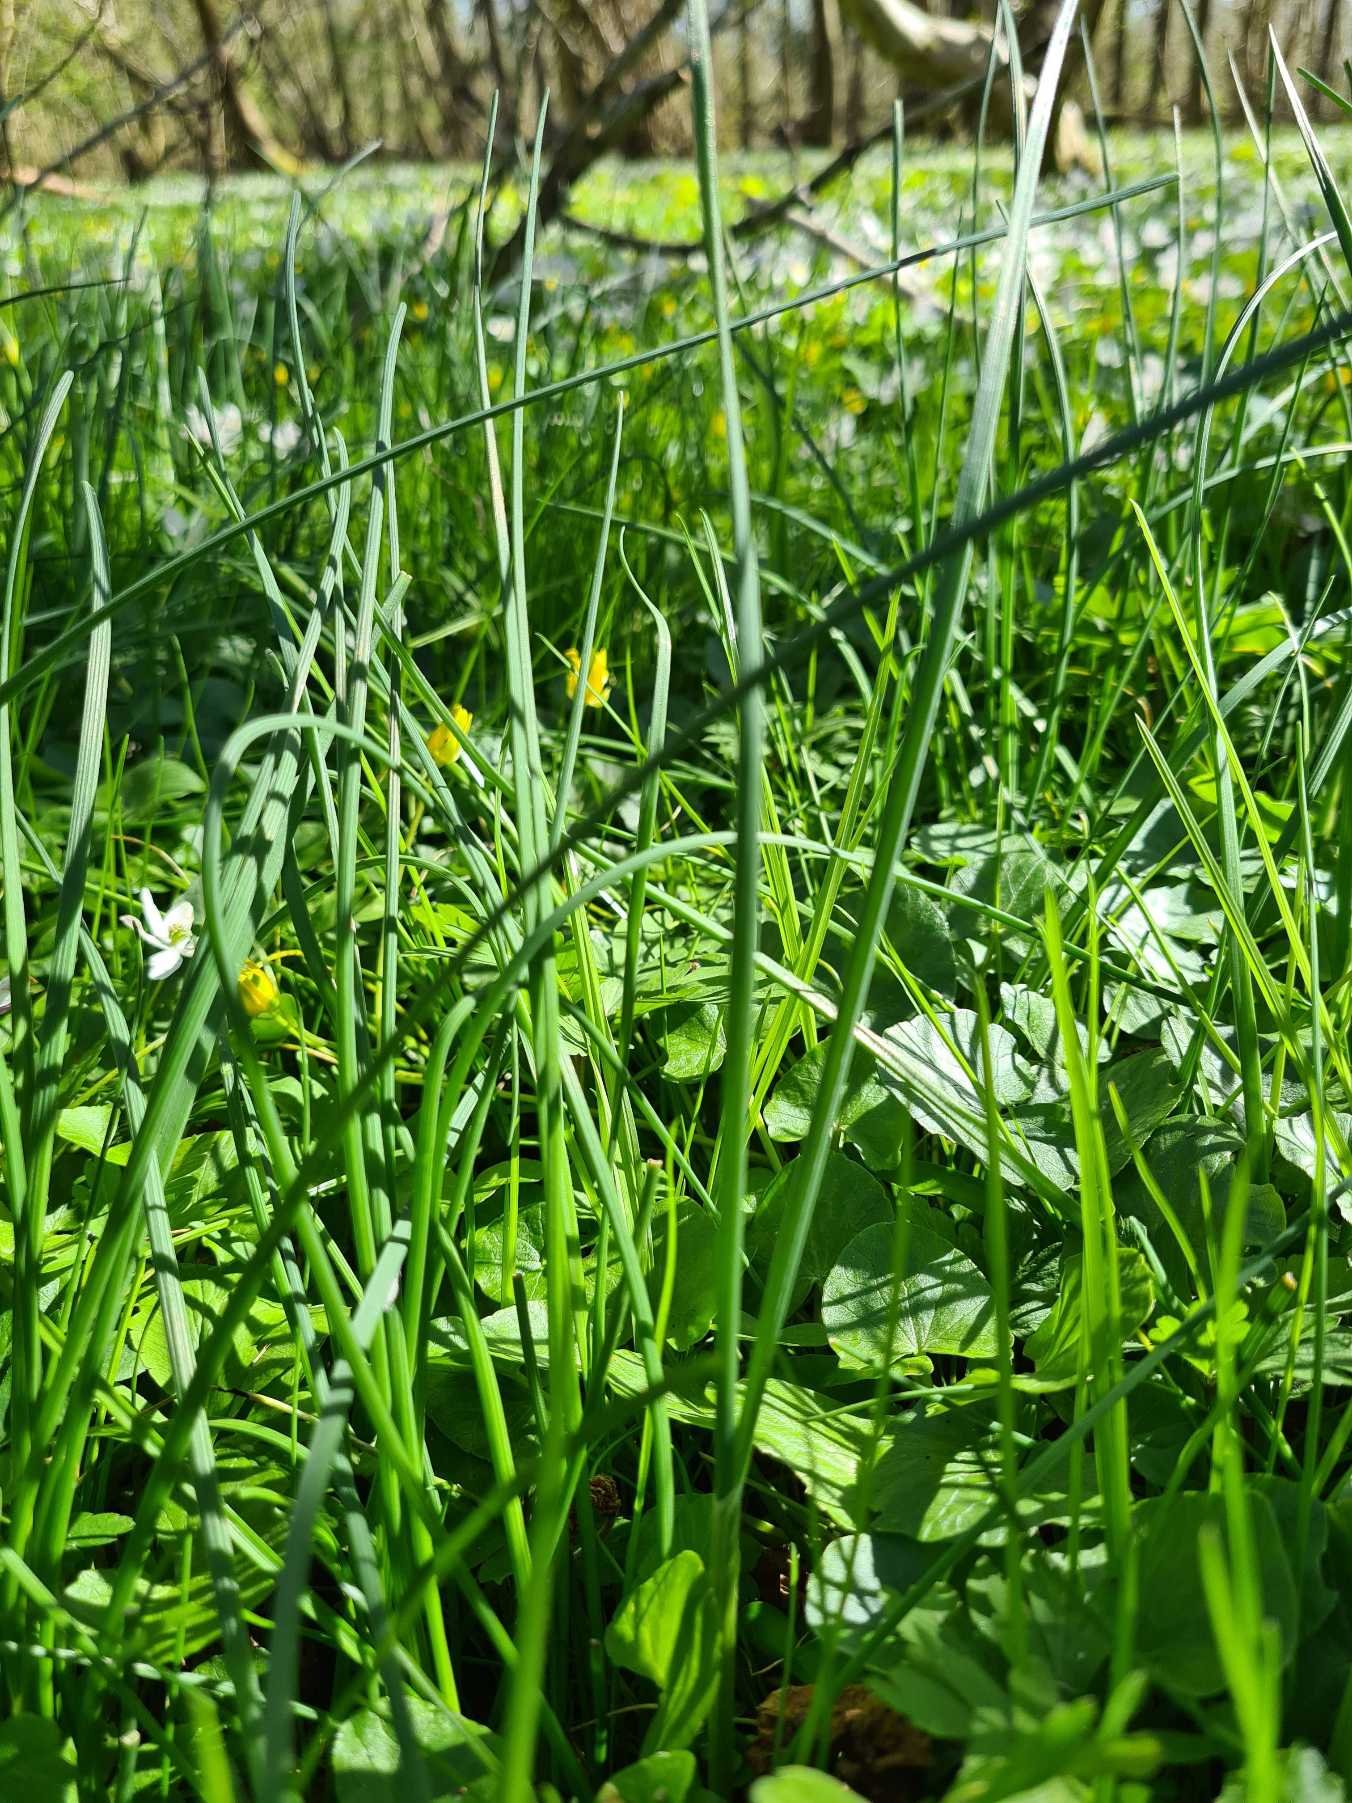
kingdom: Plantae
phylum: Tracheophyta
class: Liliopsida
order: Asparagales
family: Amaryllidaceae
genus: Allium
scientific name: Allium oleraceum
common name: Vild løg
